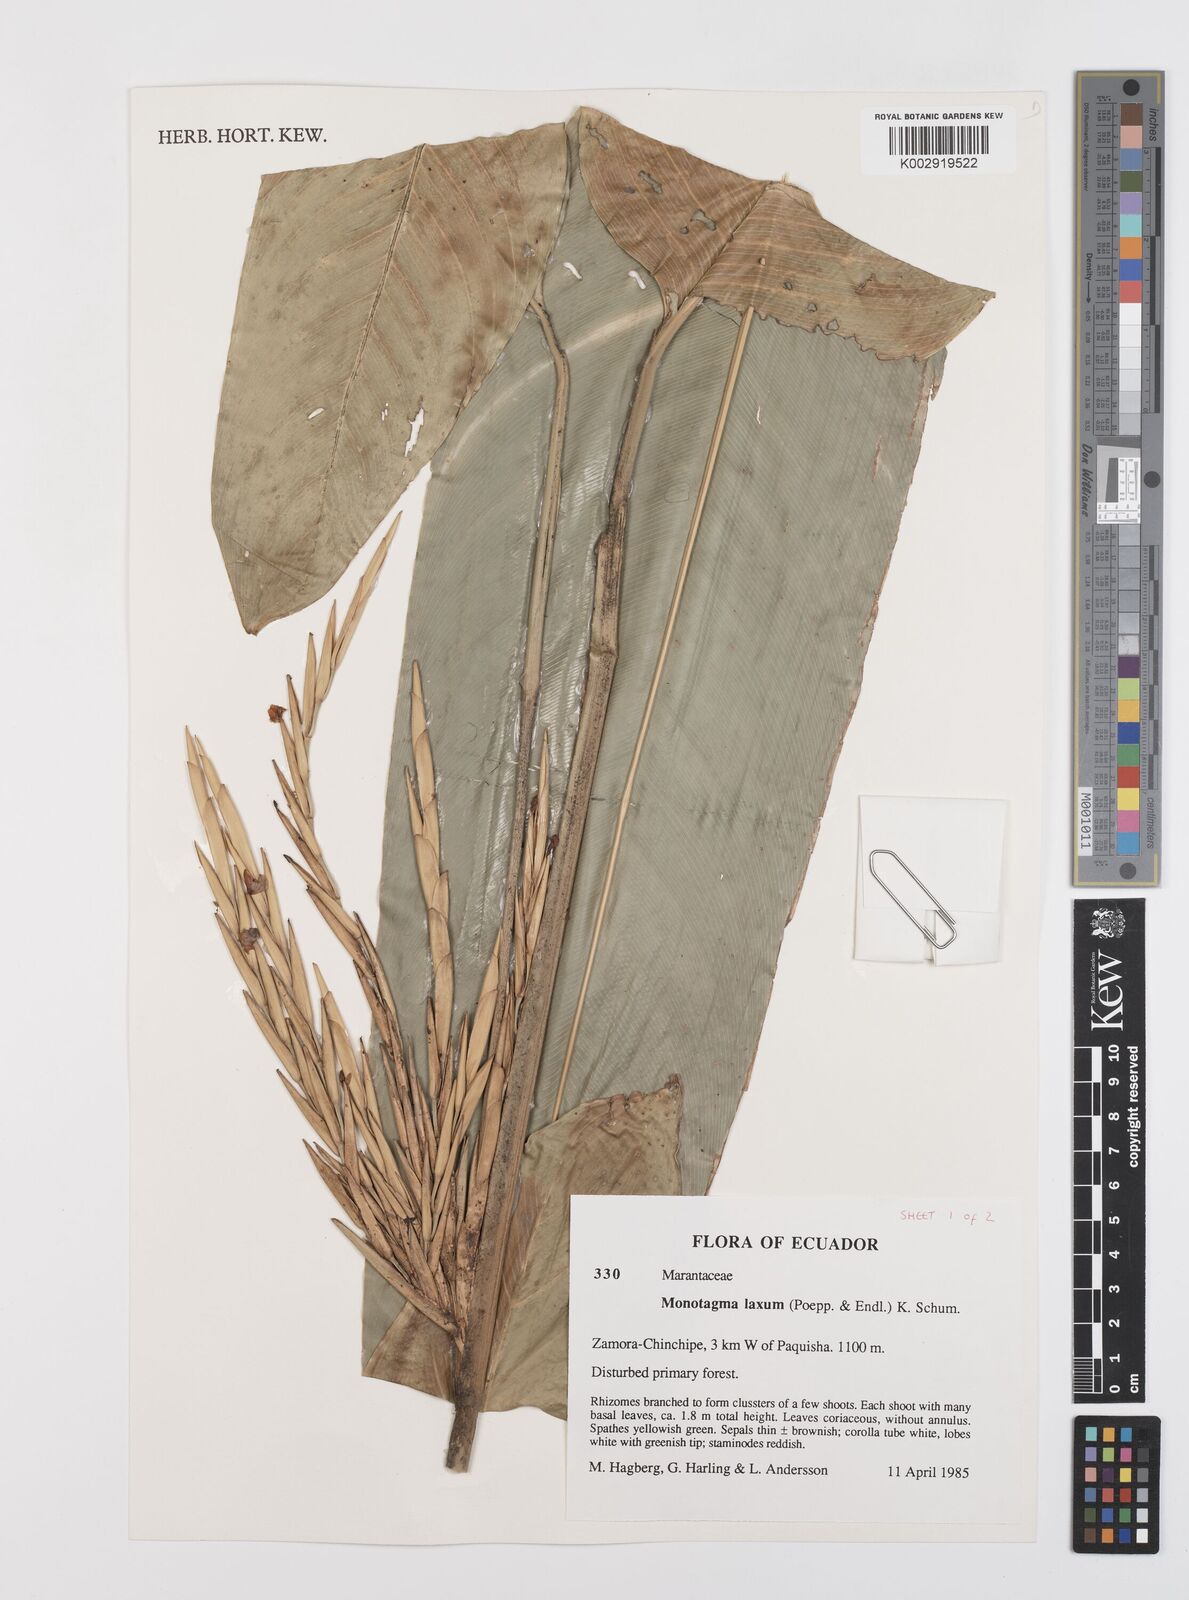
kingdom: Plantae
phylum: Tracheophyta
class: Liliopsida
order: Zingiberales
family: Marantaceae
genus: Monotagma
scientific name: Monotagma laxum
